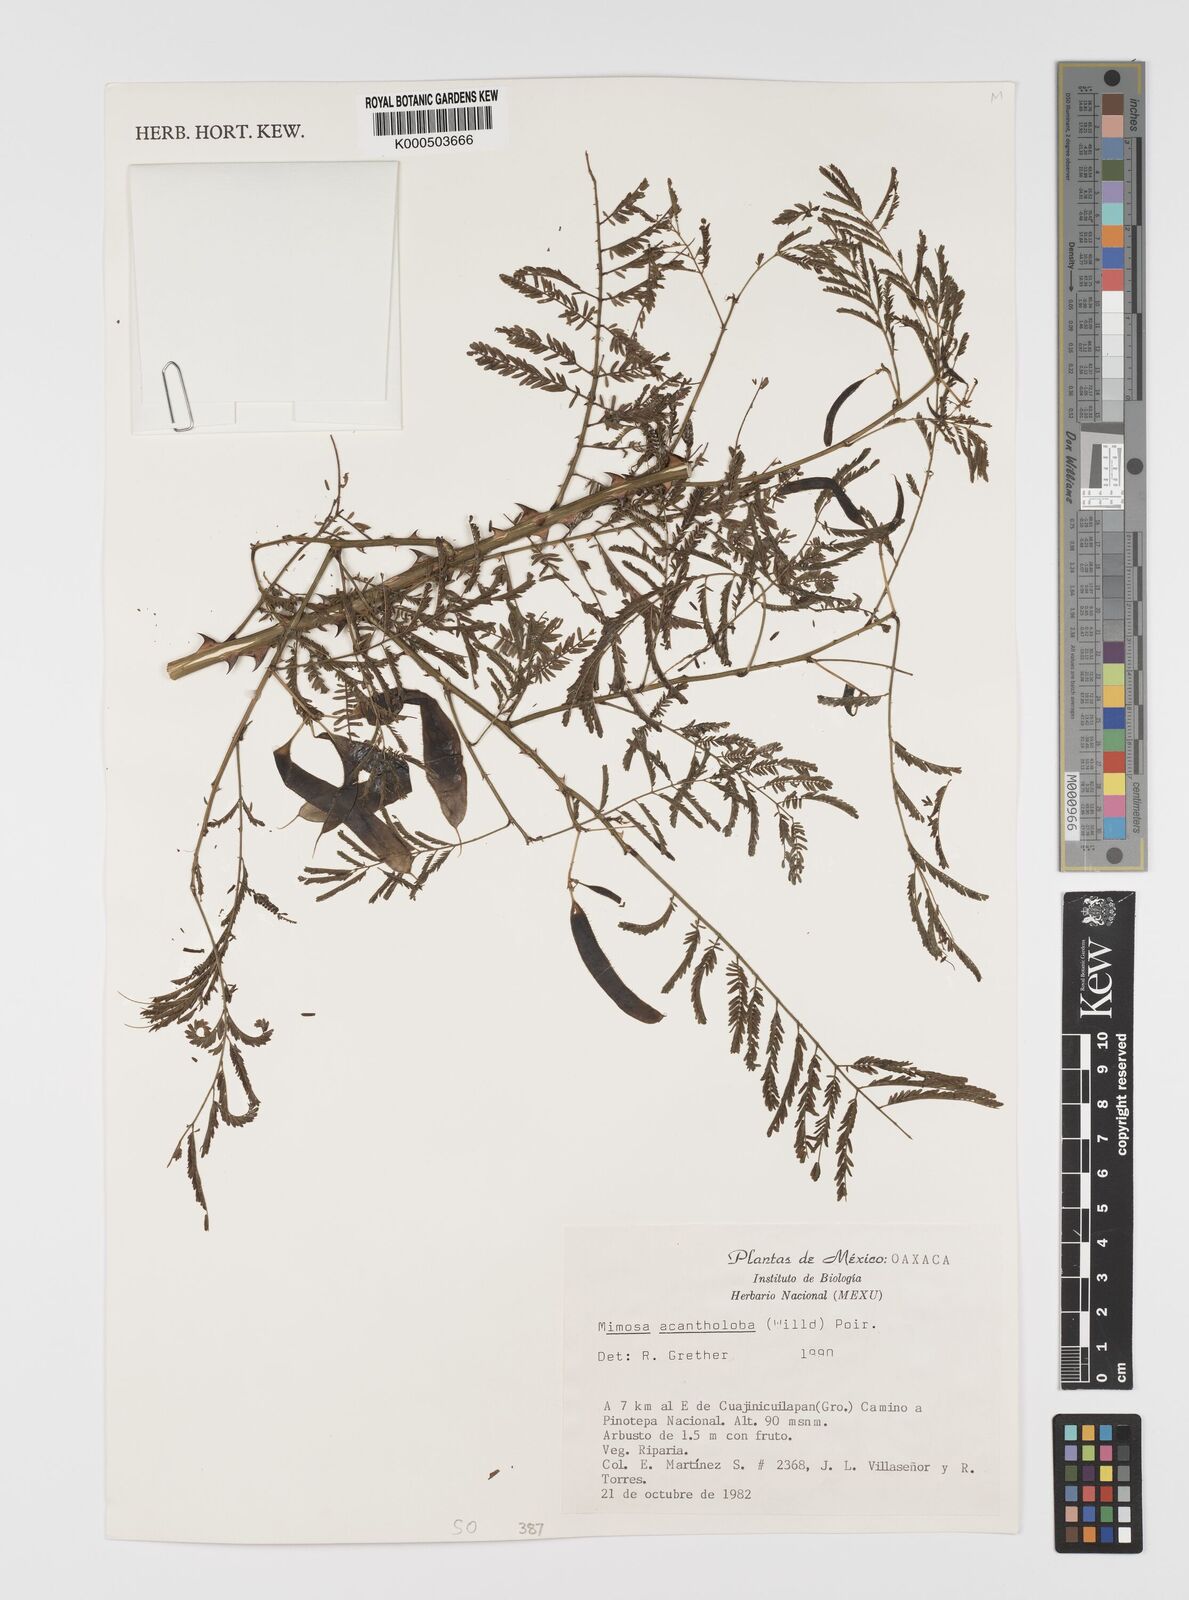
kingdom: Plantae
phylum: Tracheophyta
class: Magnoliopsida
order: Fabales
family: Fabaceae
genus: Mimosa
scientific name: Mimosa acantholoba
